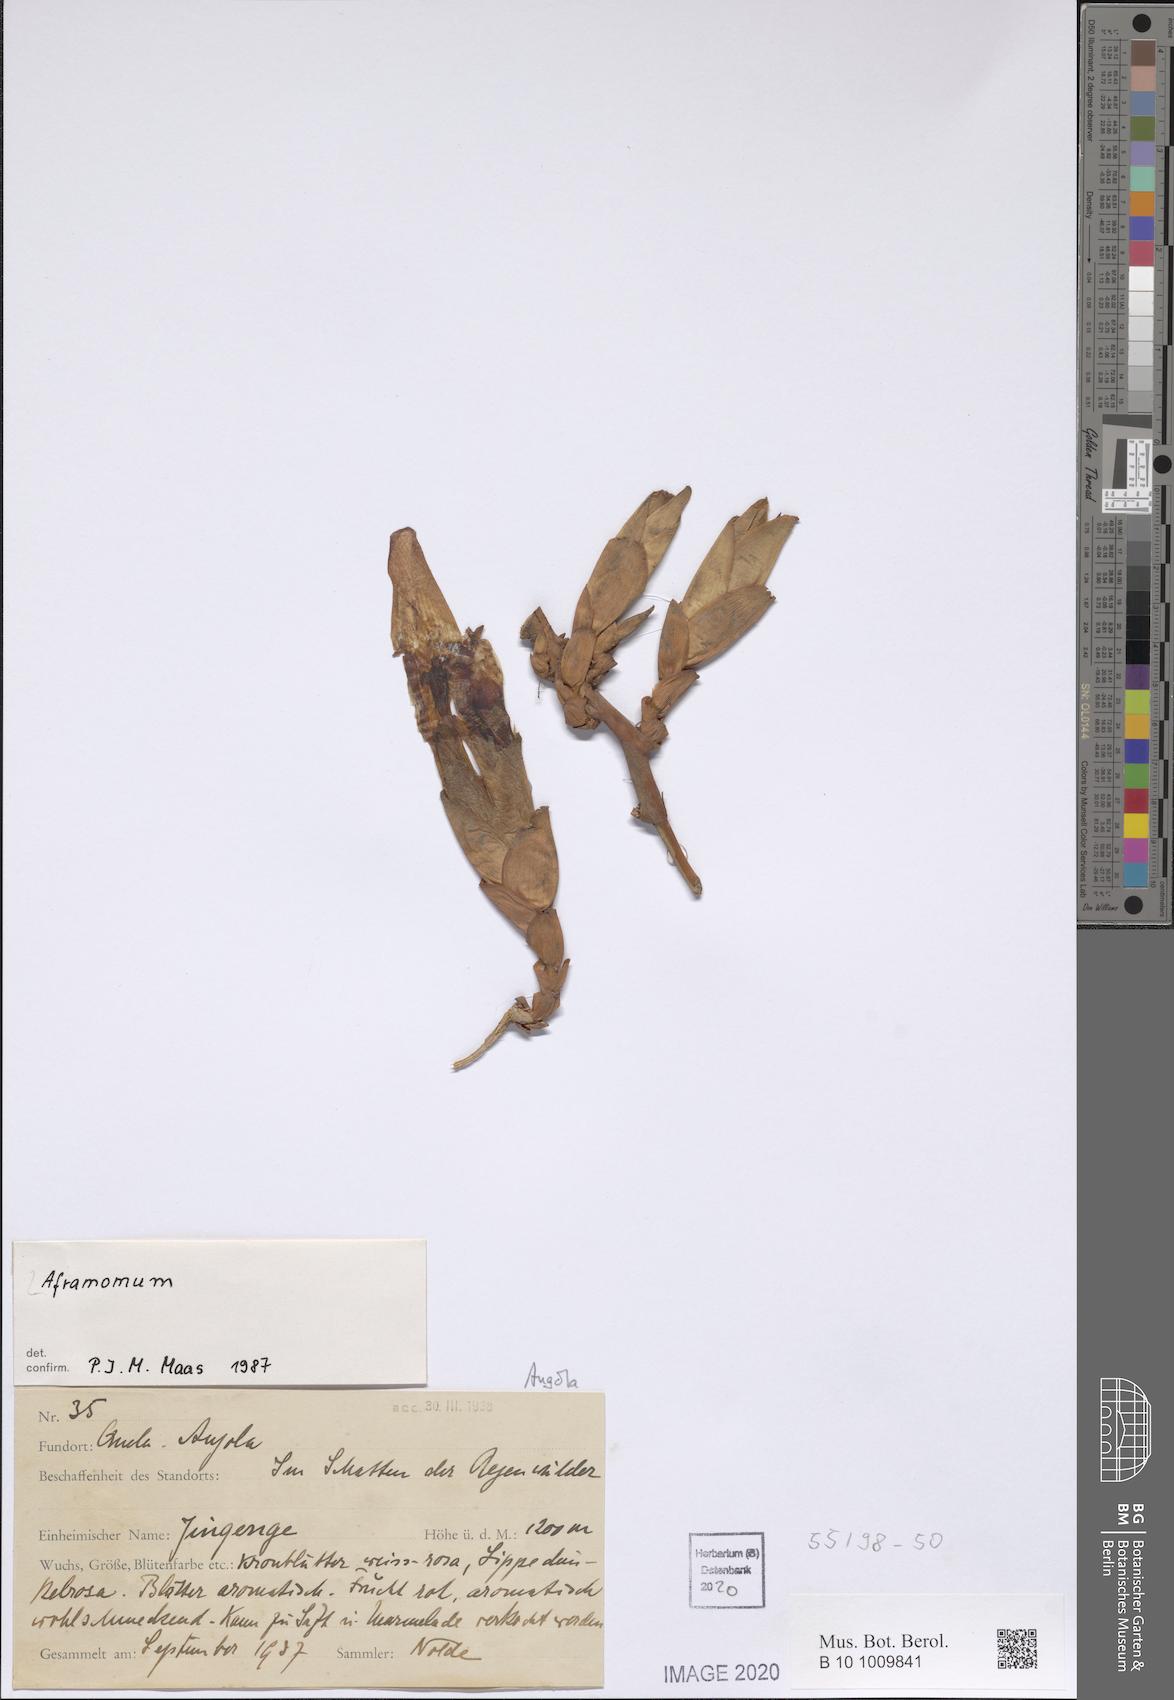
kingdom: Plantae
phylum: Tracheophyta
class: Liliopsida
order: Zingiberales
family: Zingiberaceae
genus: Aframomum
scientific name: Aframomum
